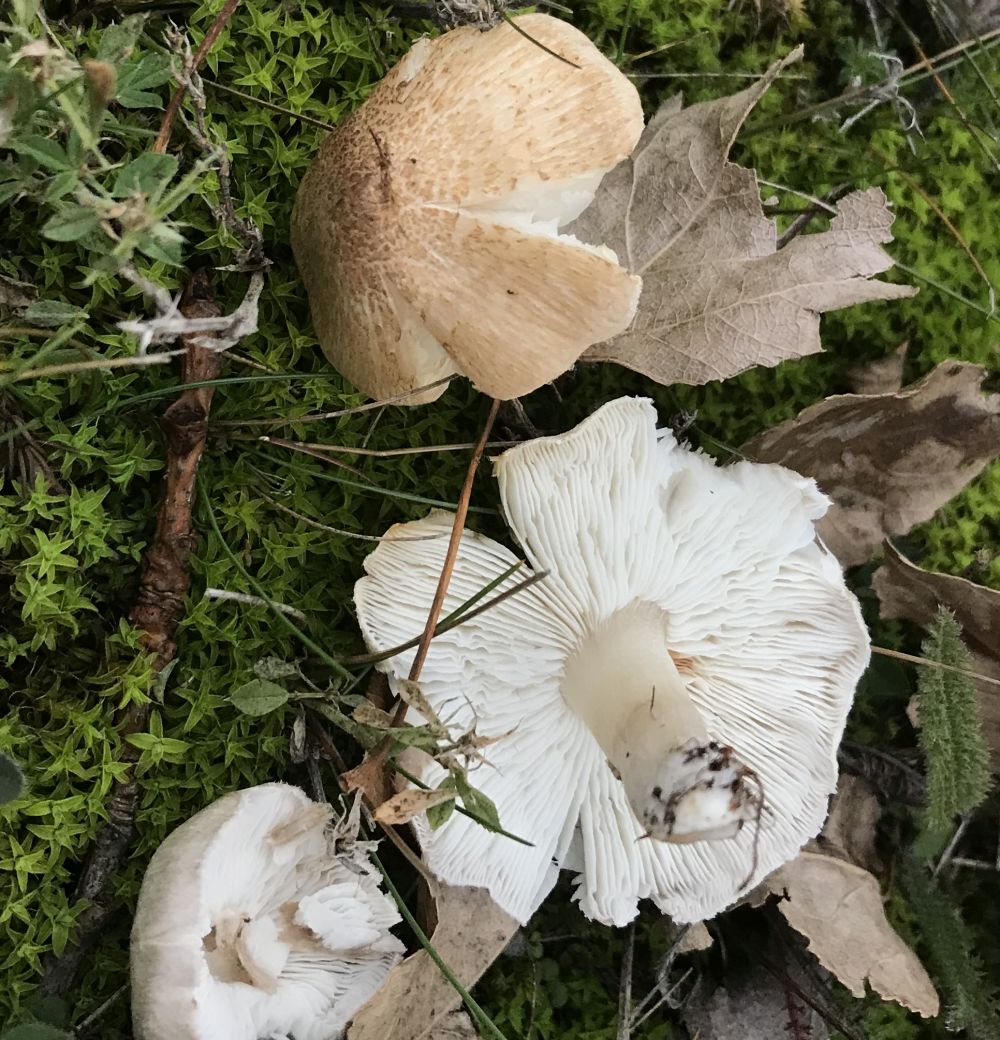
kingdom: Fungi
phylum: Basidiomycota
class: Agaricomycetes
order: Agaricales
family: Tricholomataceae
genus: Tricholoma
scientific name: Tricholoma scalpturatum
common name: gulplettet ridderhat
